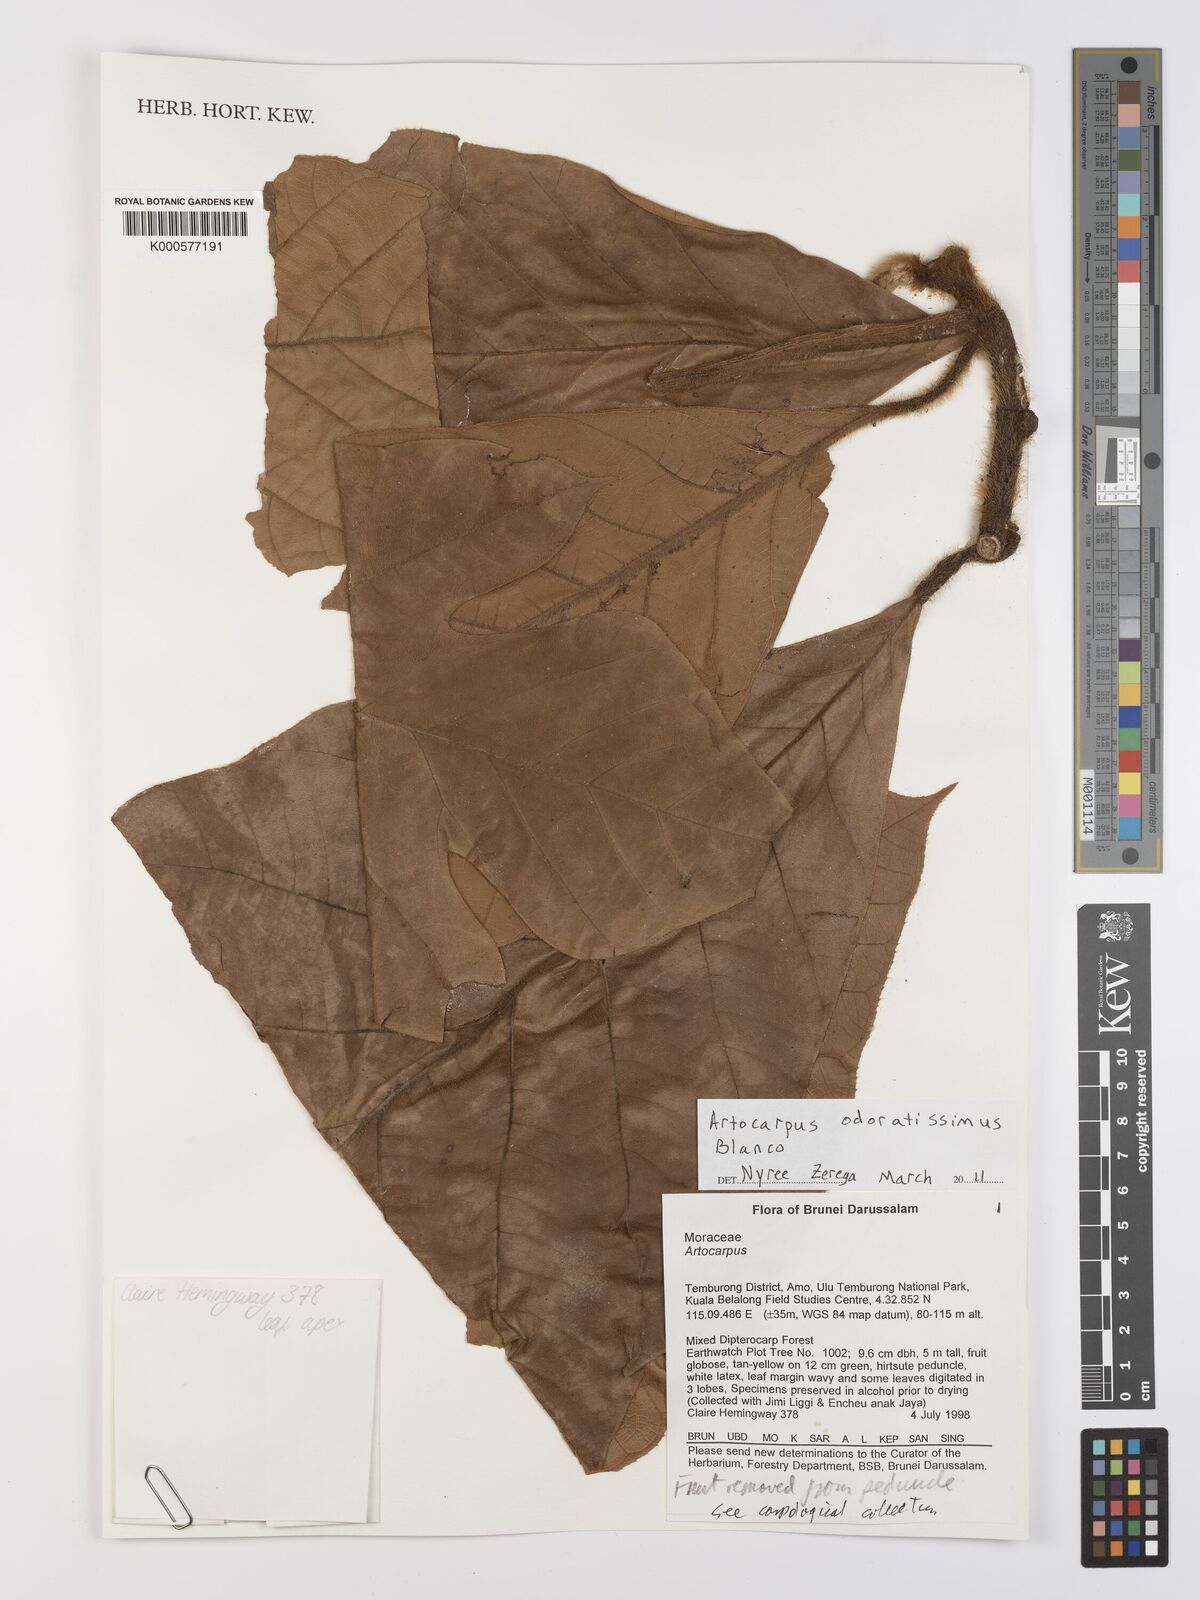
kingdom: Plantae
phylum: Tracheophyta
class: Magnoliopsida
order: Rosales
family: Moraceae
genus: Artocarpus
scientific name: Artocarpus odoratissimus
